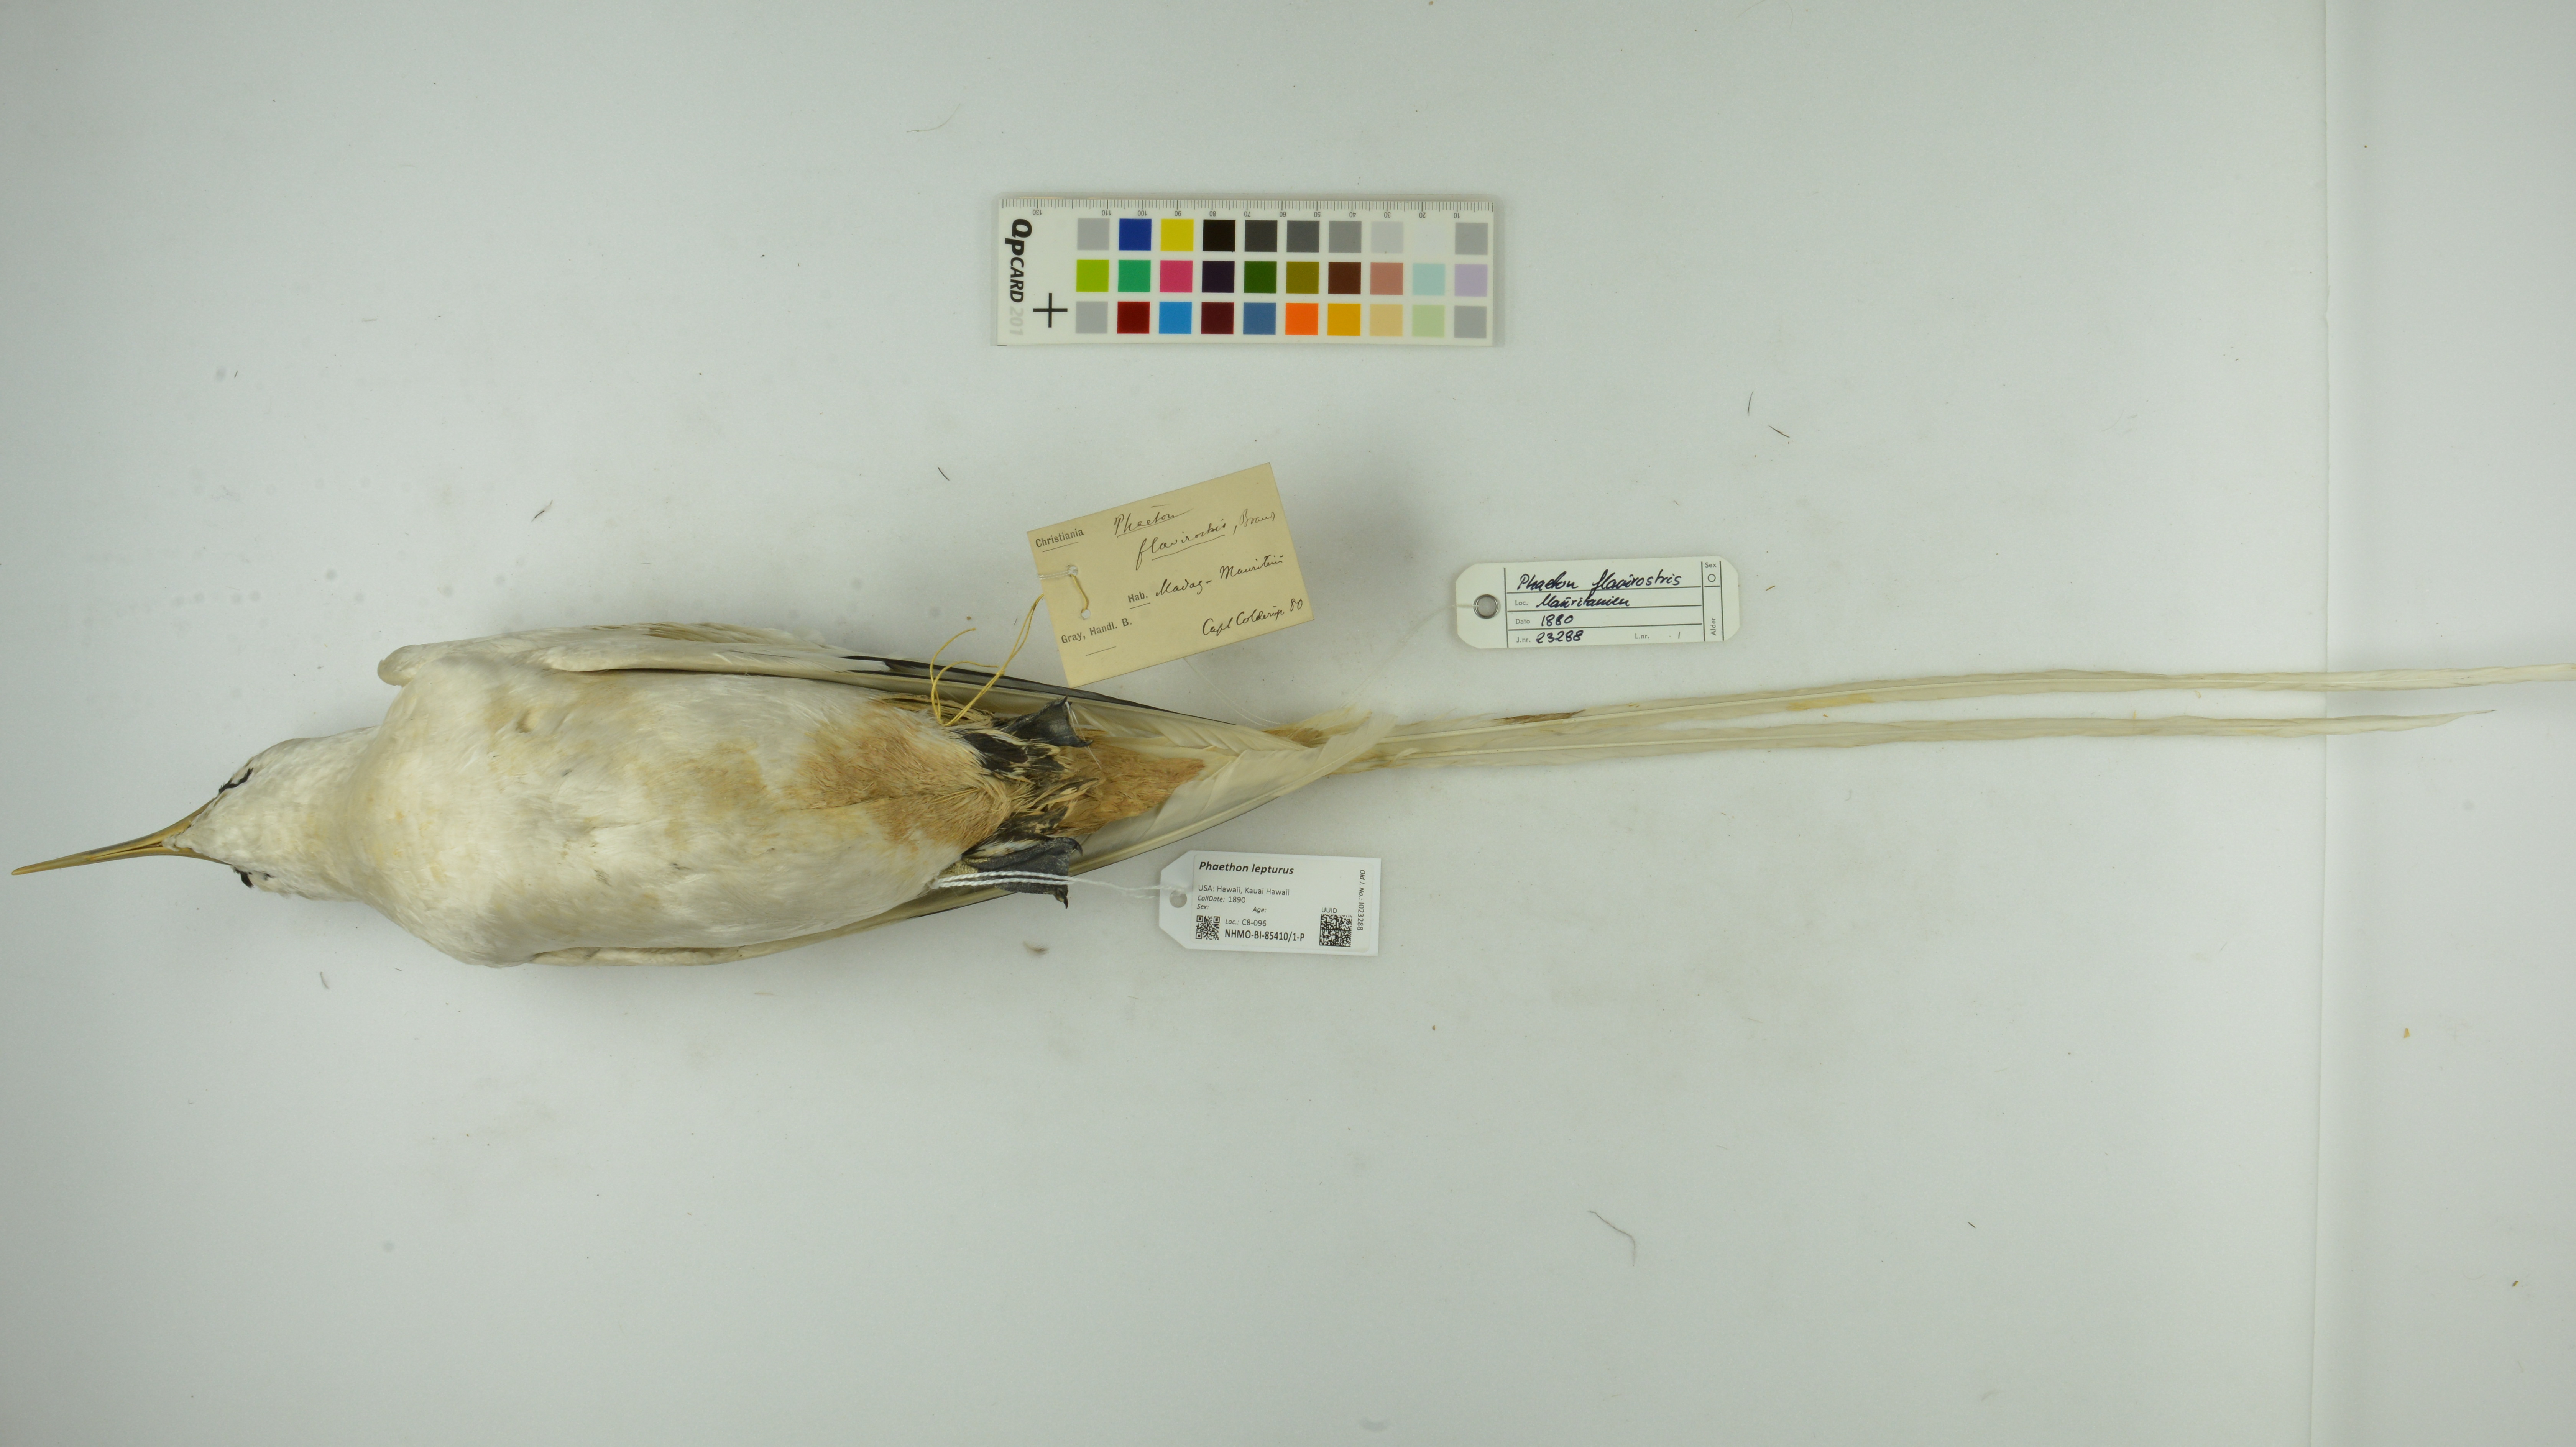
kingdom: Animalia
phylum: Chordata
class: Aves
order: Phaethontiformes
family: Phaethontidae
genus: Phaethon
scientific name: Phaethon lepturus
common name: White-tailed tropicbird
